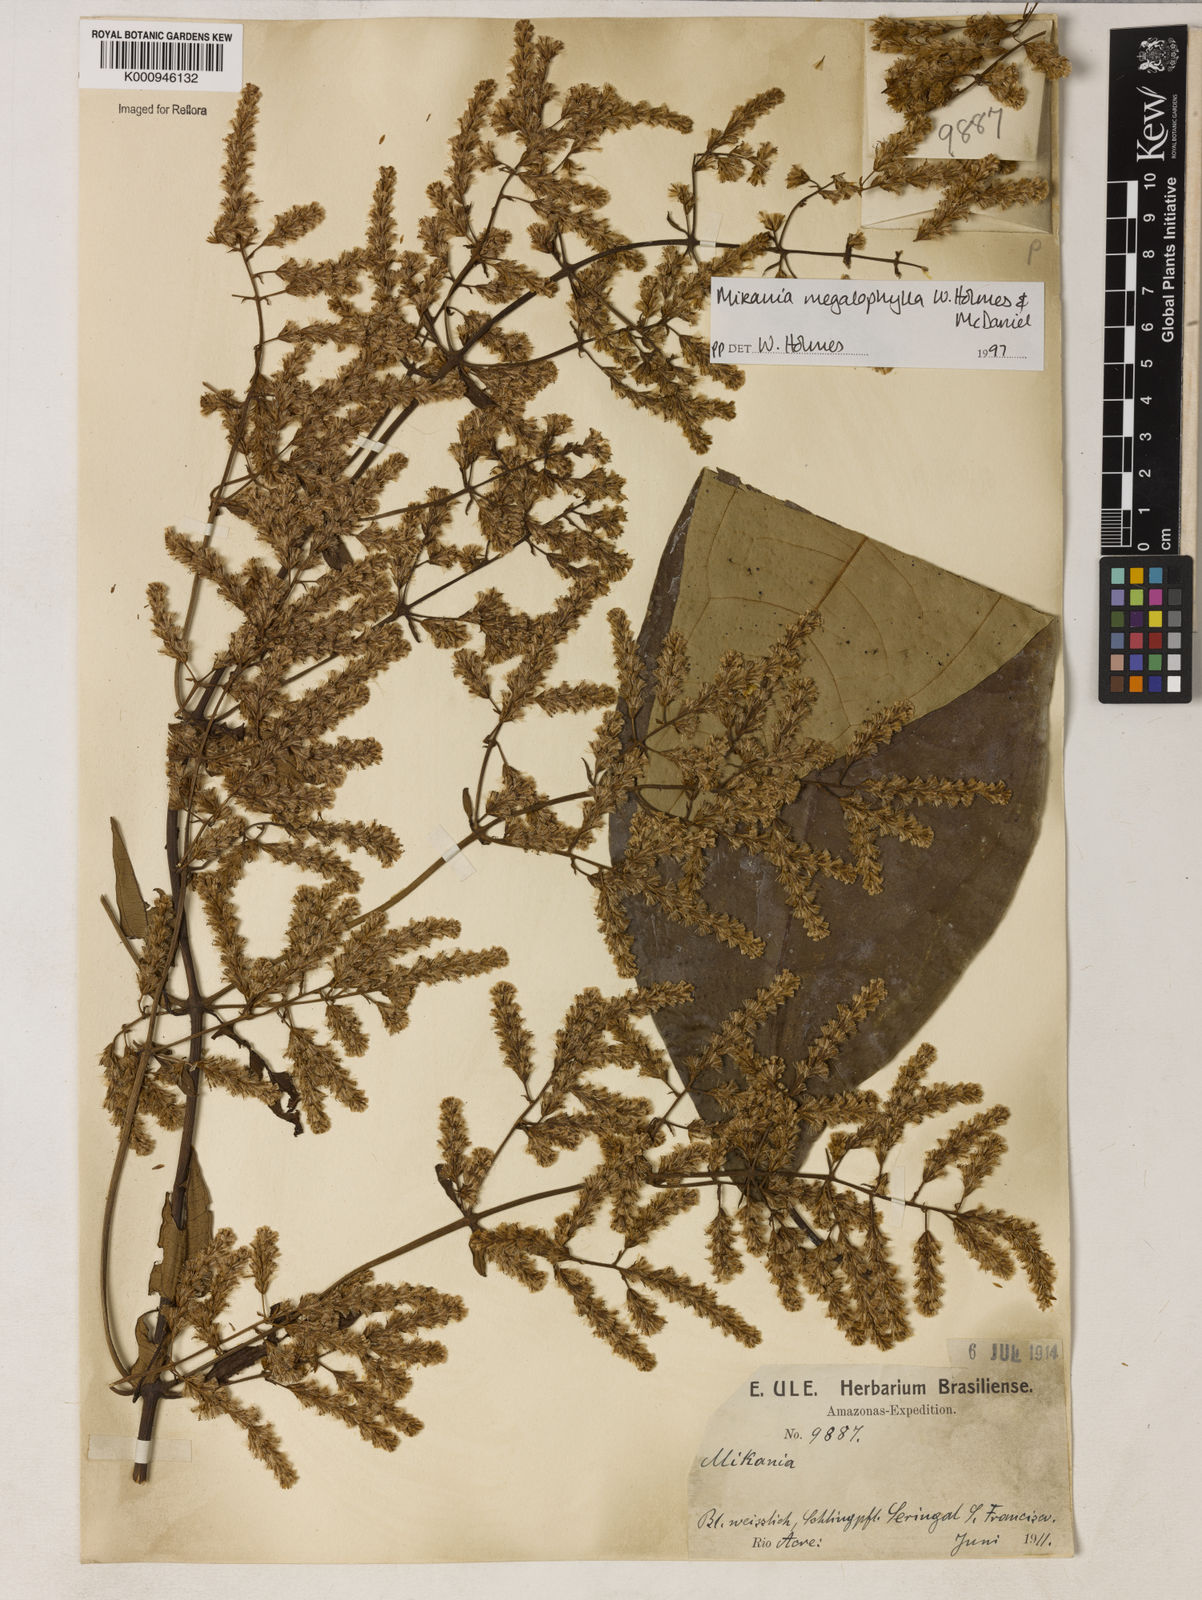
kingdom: Plantae
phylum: Tracheophyta
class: Magnoliopsida
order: Asterales
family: Asteraceae
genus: Mikania
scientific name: Mikania megalophylla
